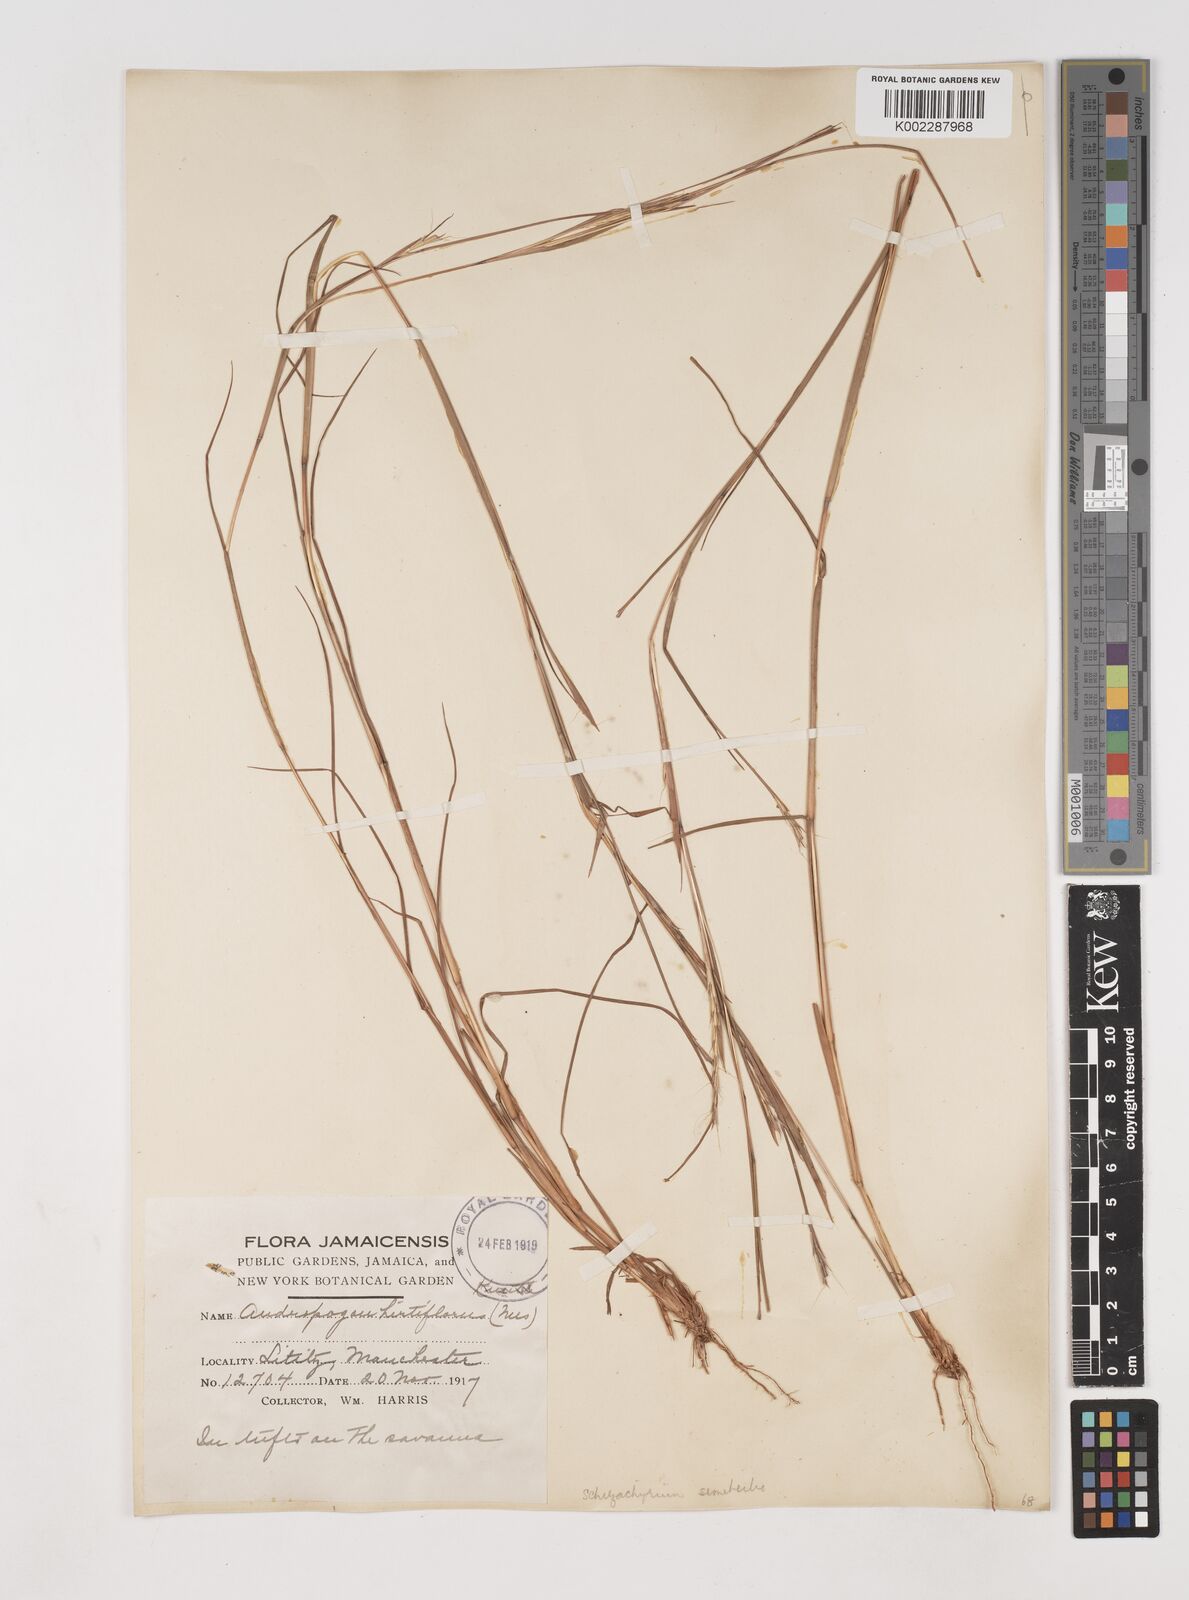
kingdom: Plantae
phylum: Tracheophyta
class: Liliopsida
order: Poales
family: Poaceae
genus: Schizachyrium
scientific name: Schizachyrium sanguineum
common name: Crimson bluestem
